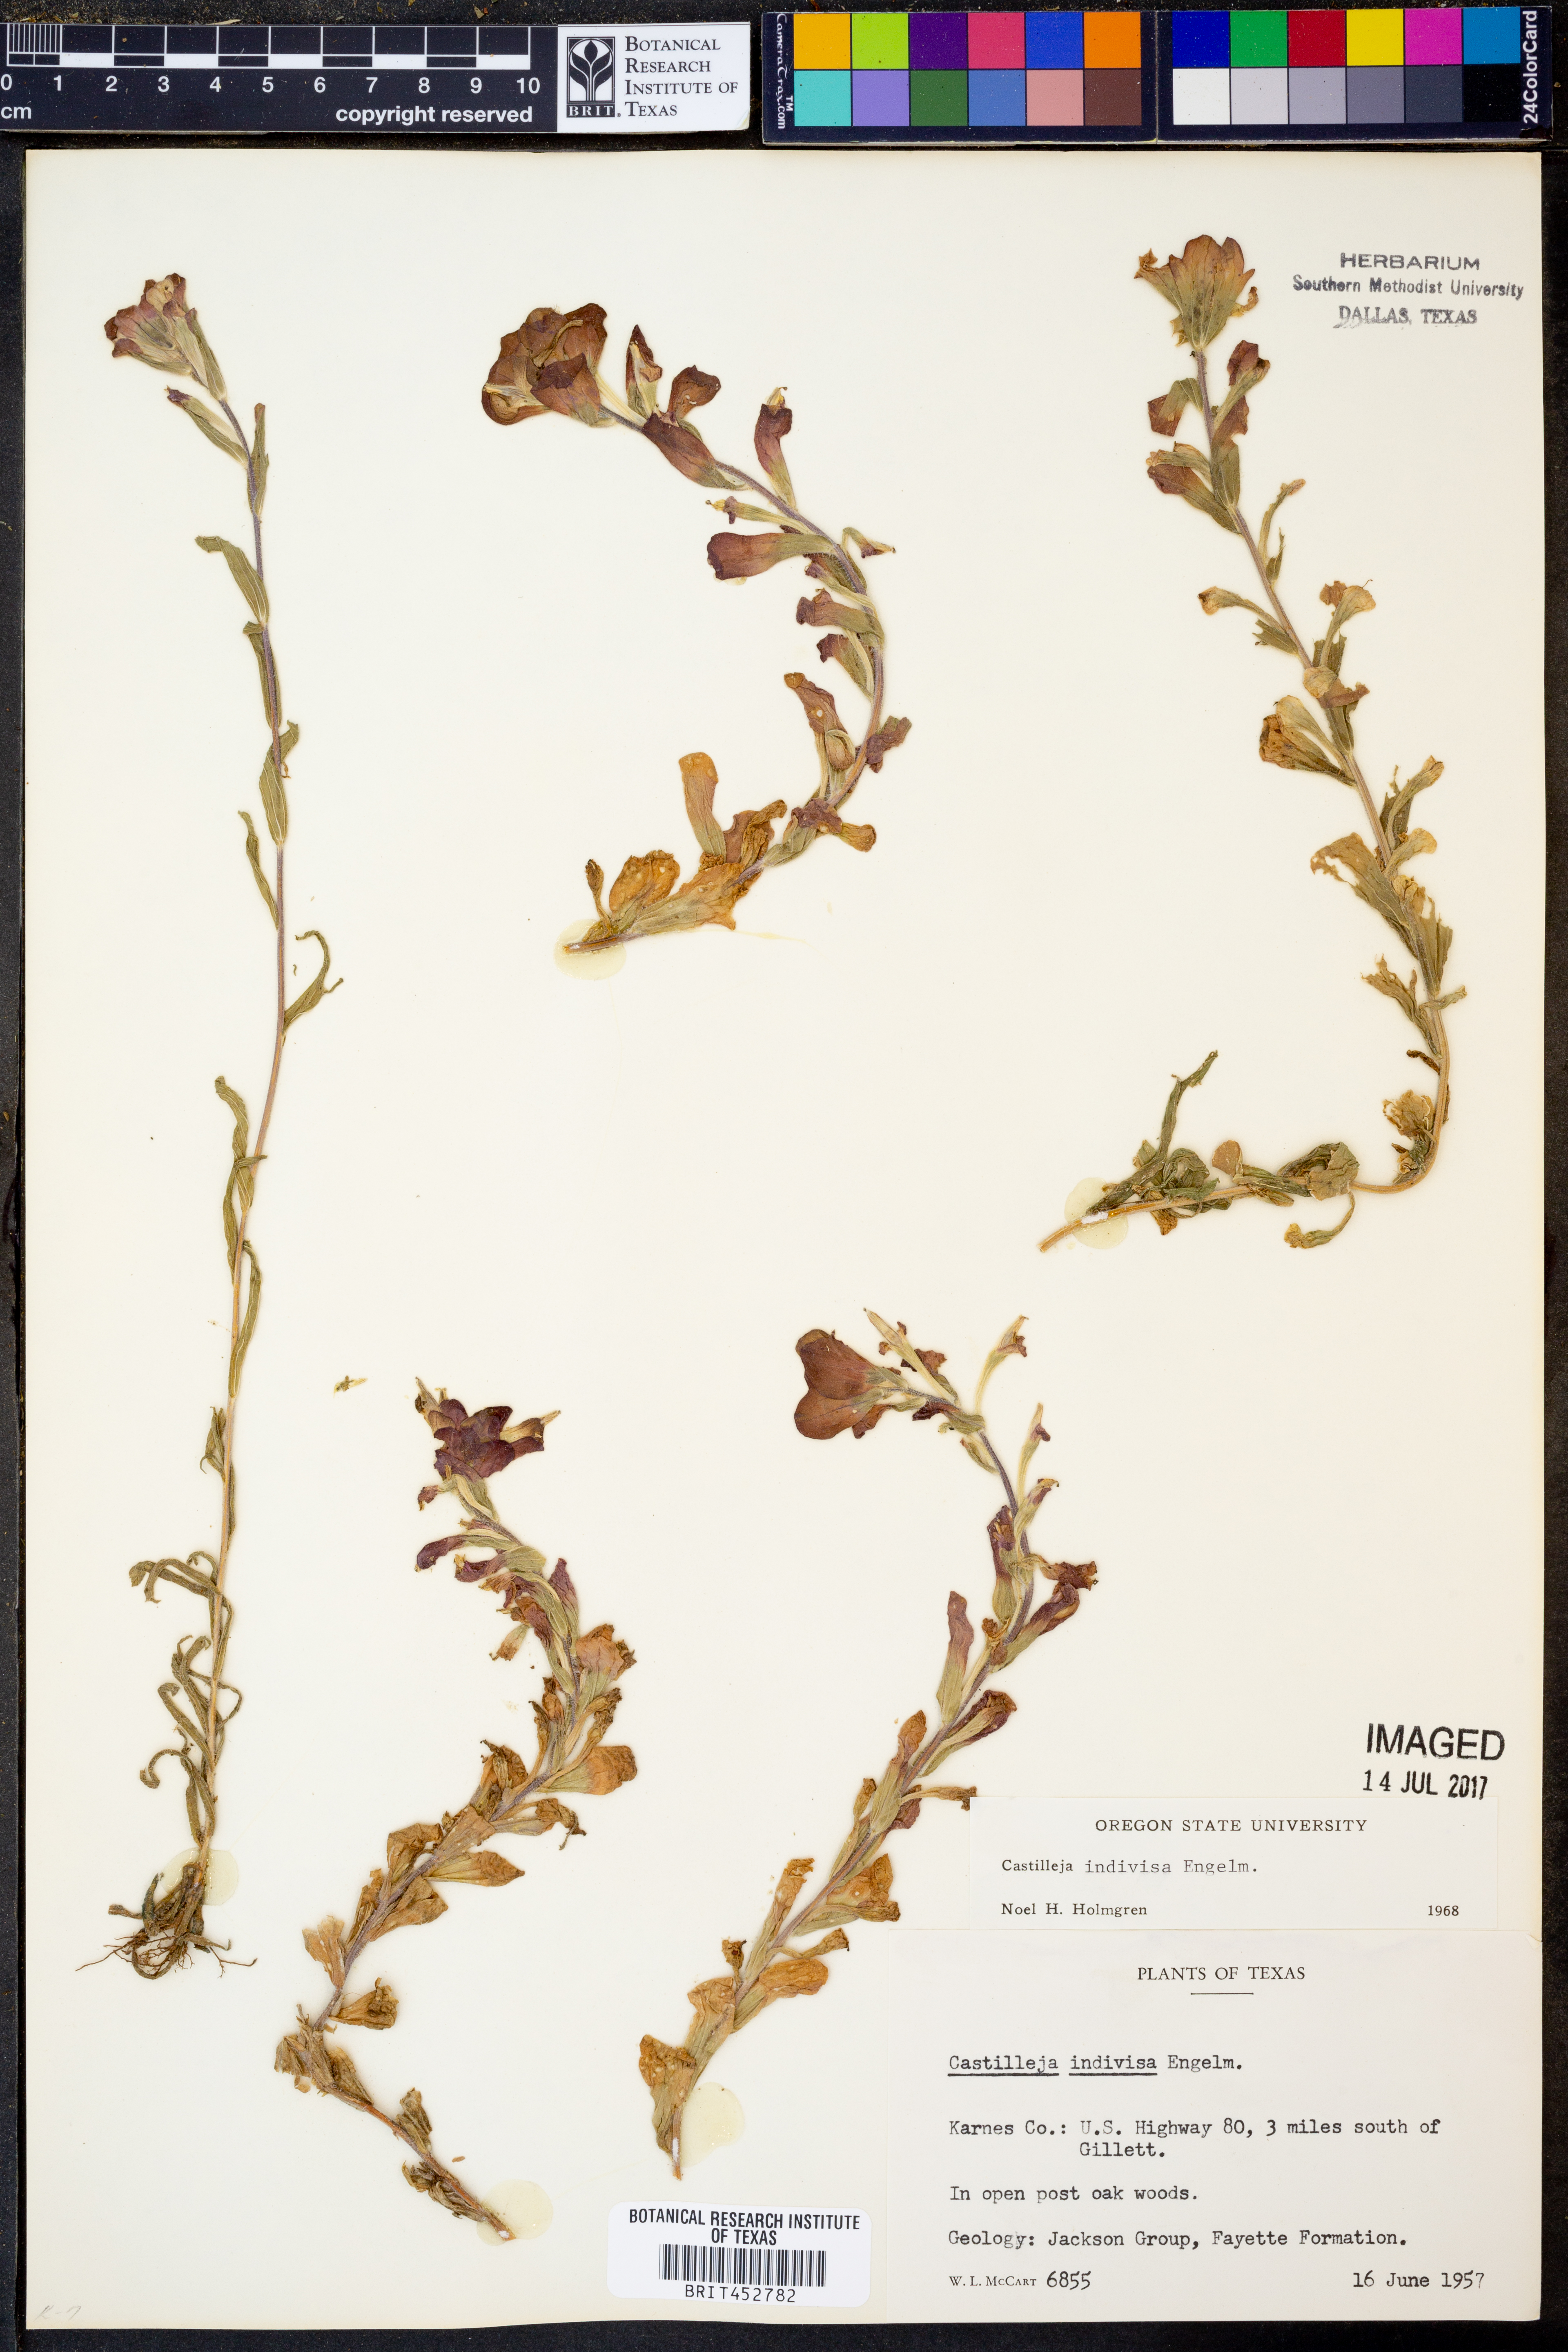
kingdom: Plantae
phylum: Tracheophyta
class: Magnoliopsida
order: Lamiales
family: Orobanchaceae
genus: Castilleja
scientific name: Castilleja indivisa
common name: Texas paintbrush
